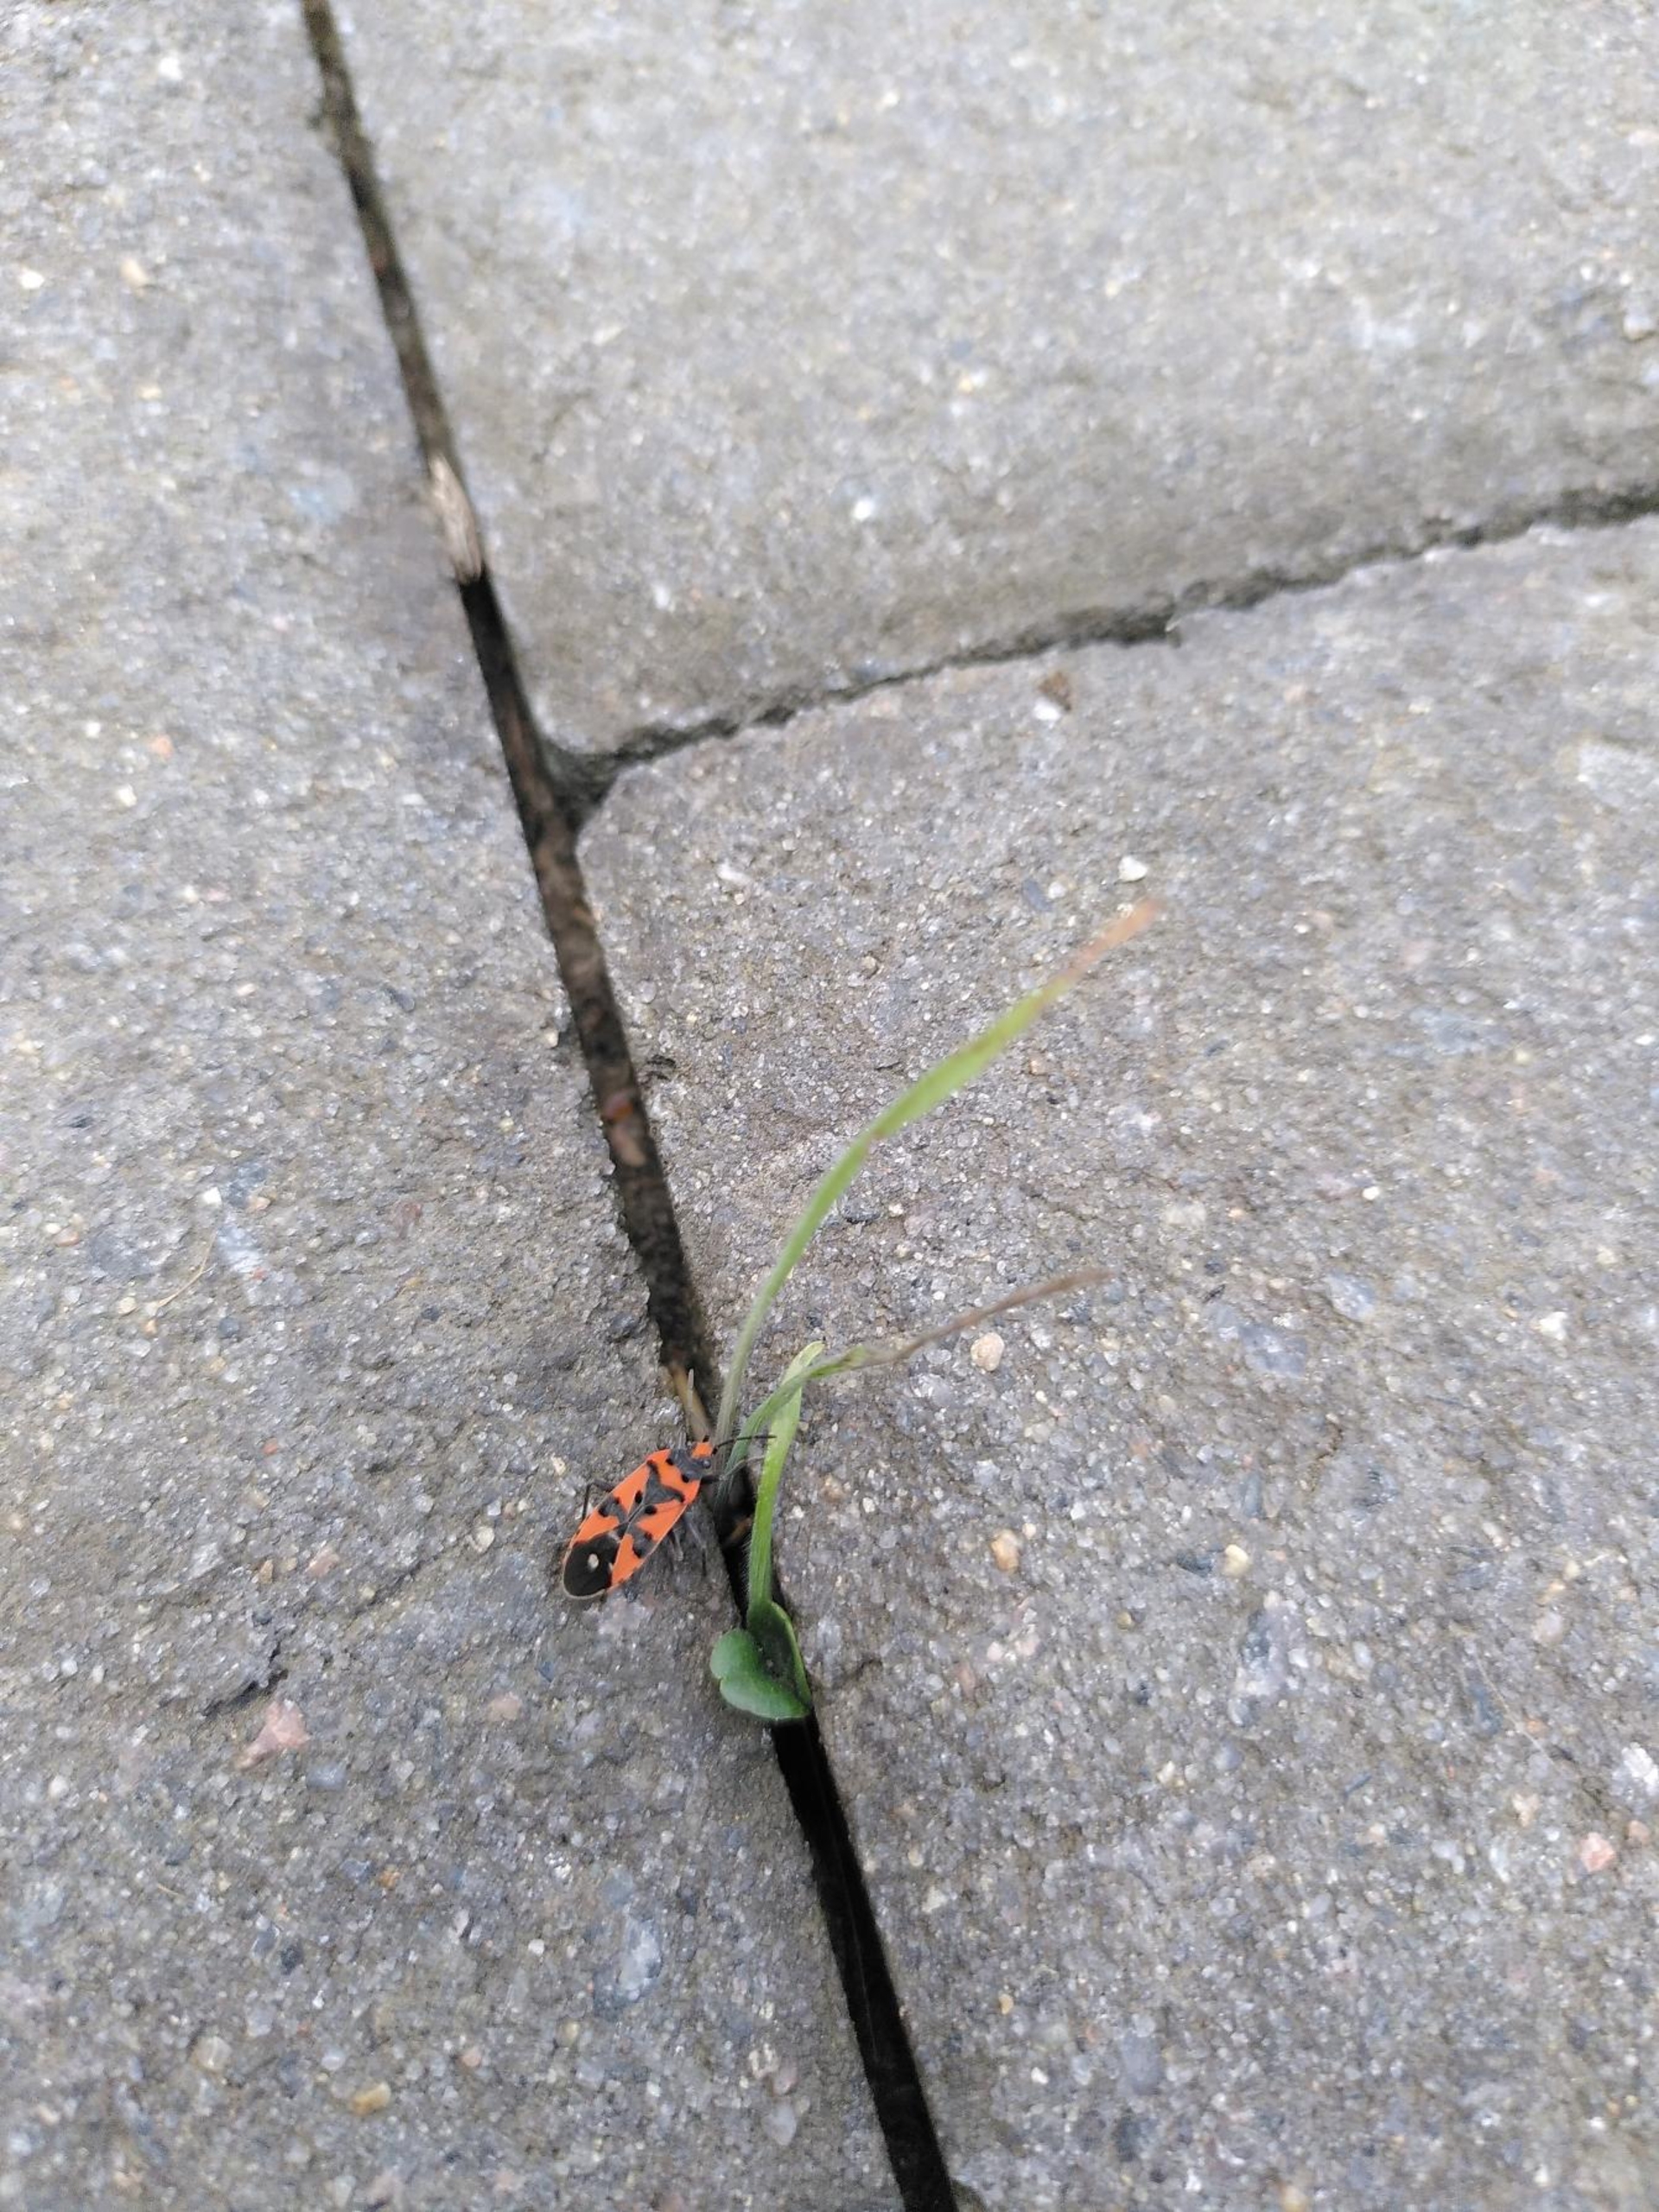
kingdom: Animalia
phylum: Arthropoda
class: Insecta
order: Hemiptera
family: Lygaeidae
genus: Lygaeus
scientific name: Lygaeus equestris
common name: Soldatertæge
